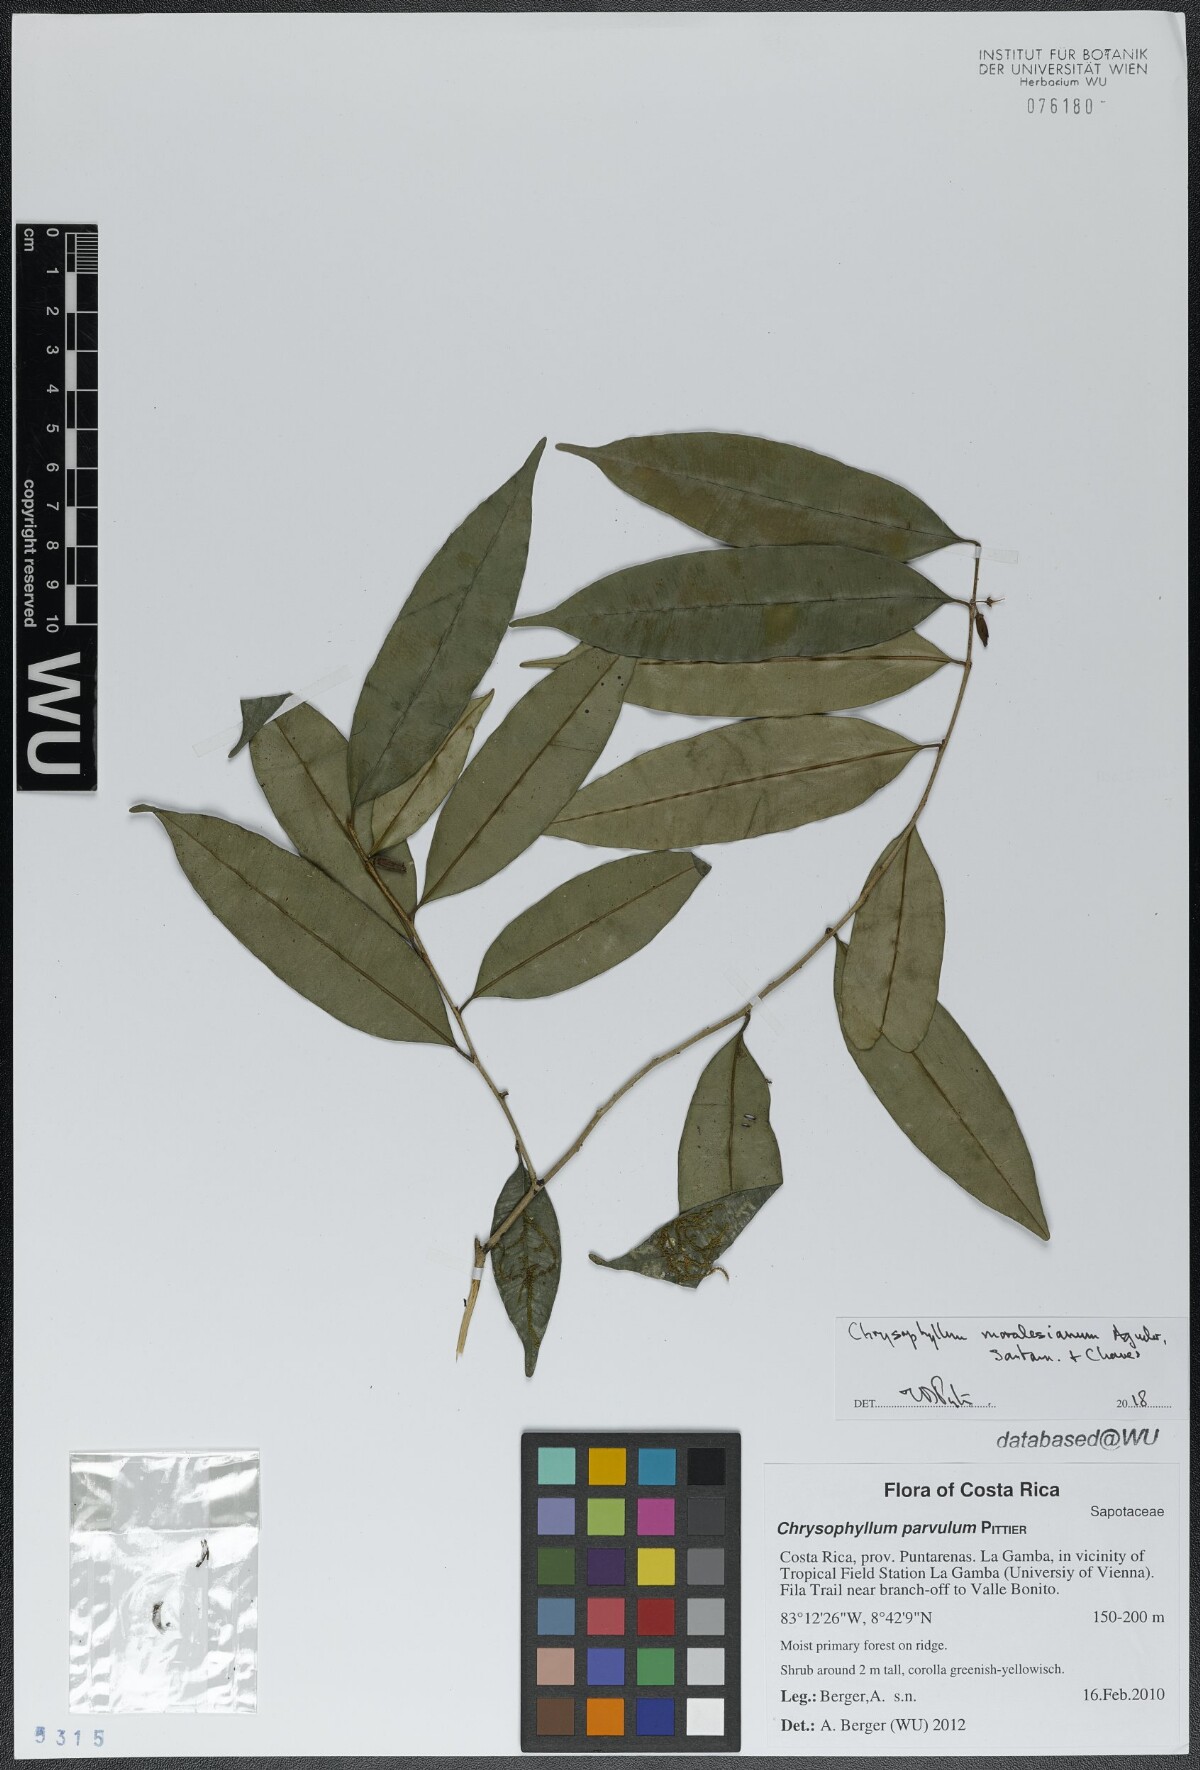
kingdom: Plantae
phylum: Tracheophyta
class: Magnoliopsida
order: Ericales
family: Sapotaceae
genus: Chrysophyllum
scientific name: Chrysophyllum moralesianum
